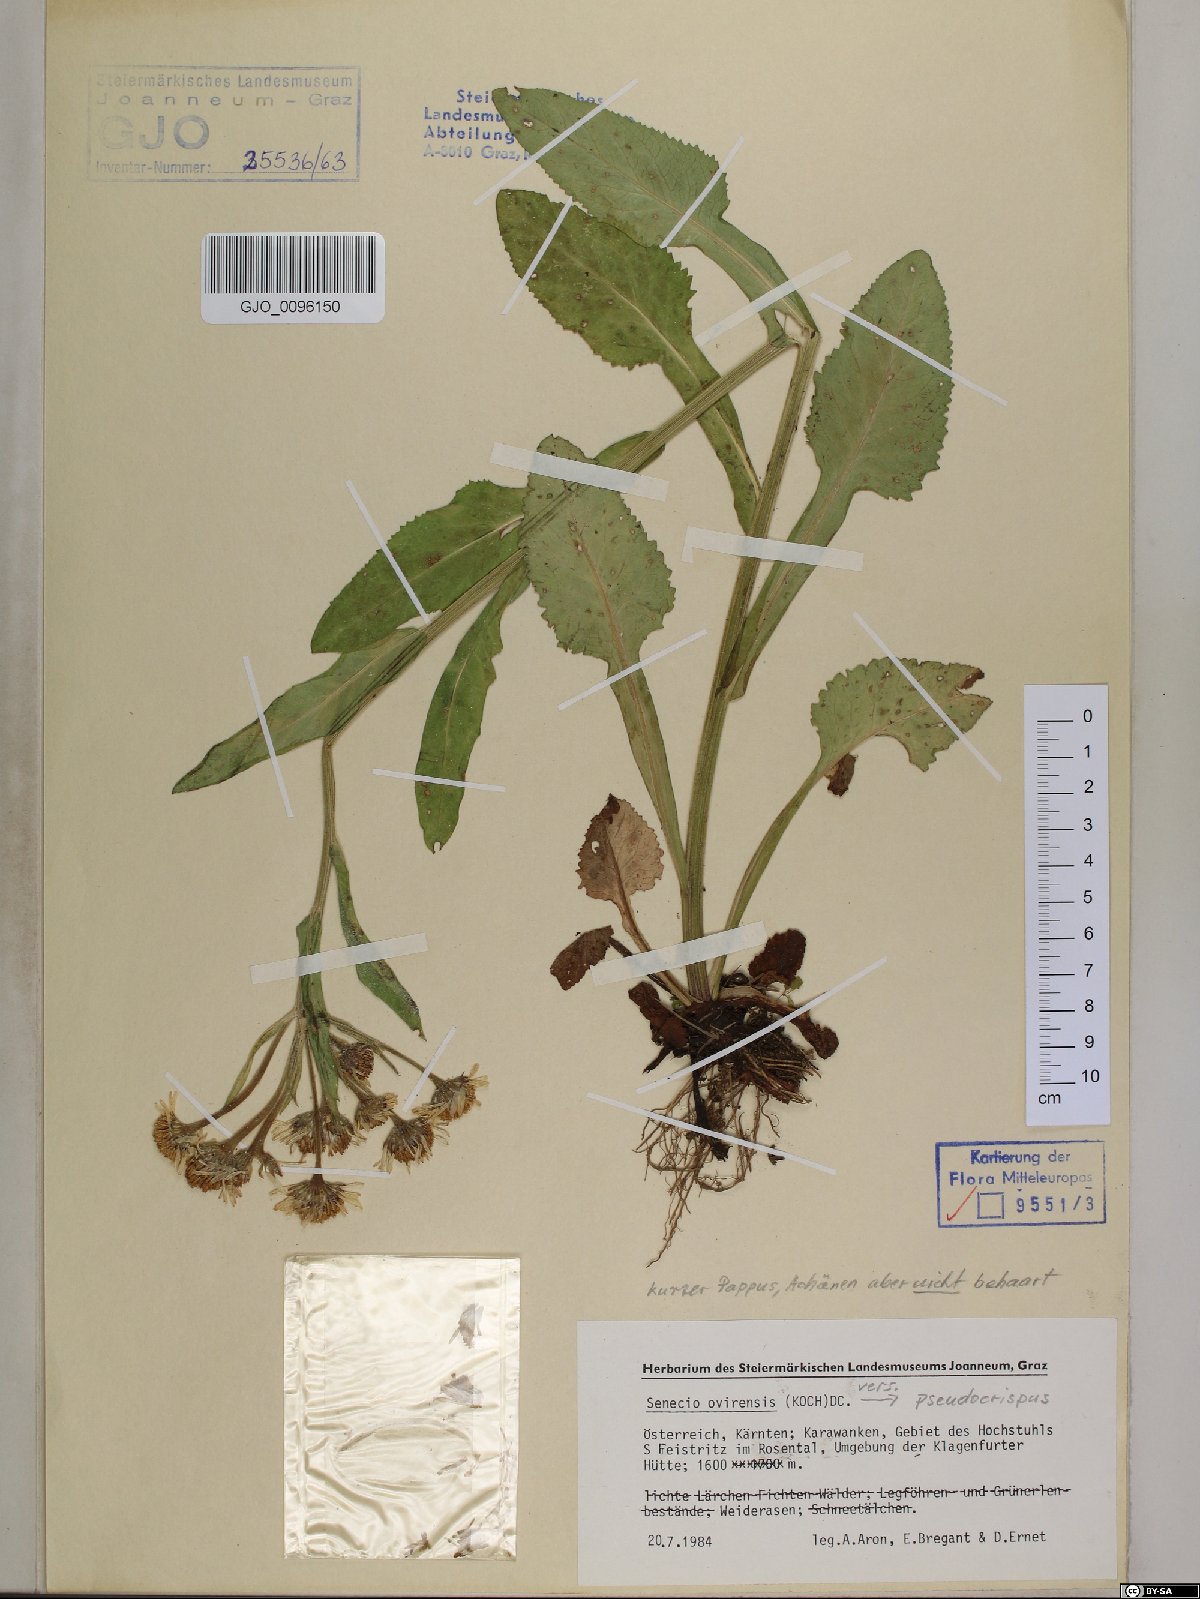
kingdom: Plantae
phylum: Tracheophyta
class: Magnoliopsida
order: Asterales
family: Asteraceae
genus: Tephroseris
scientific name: Tephroseris longifolia
